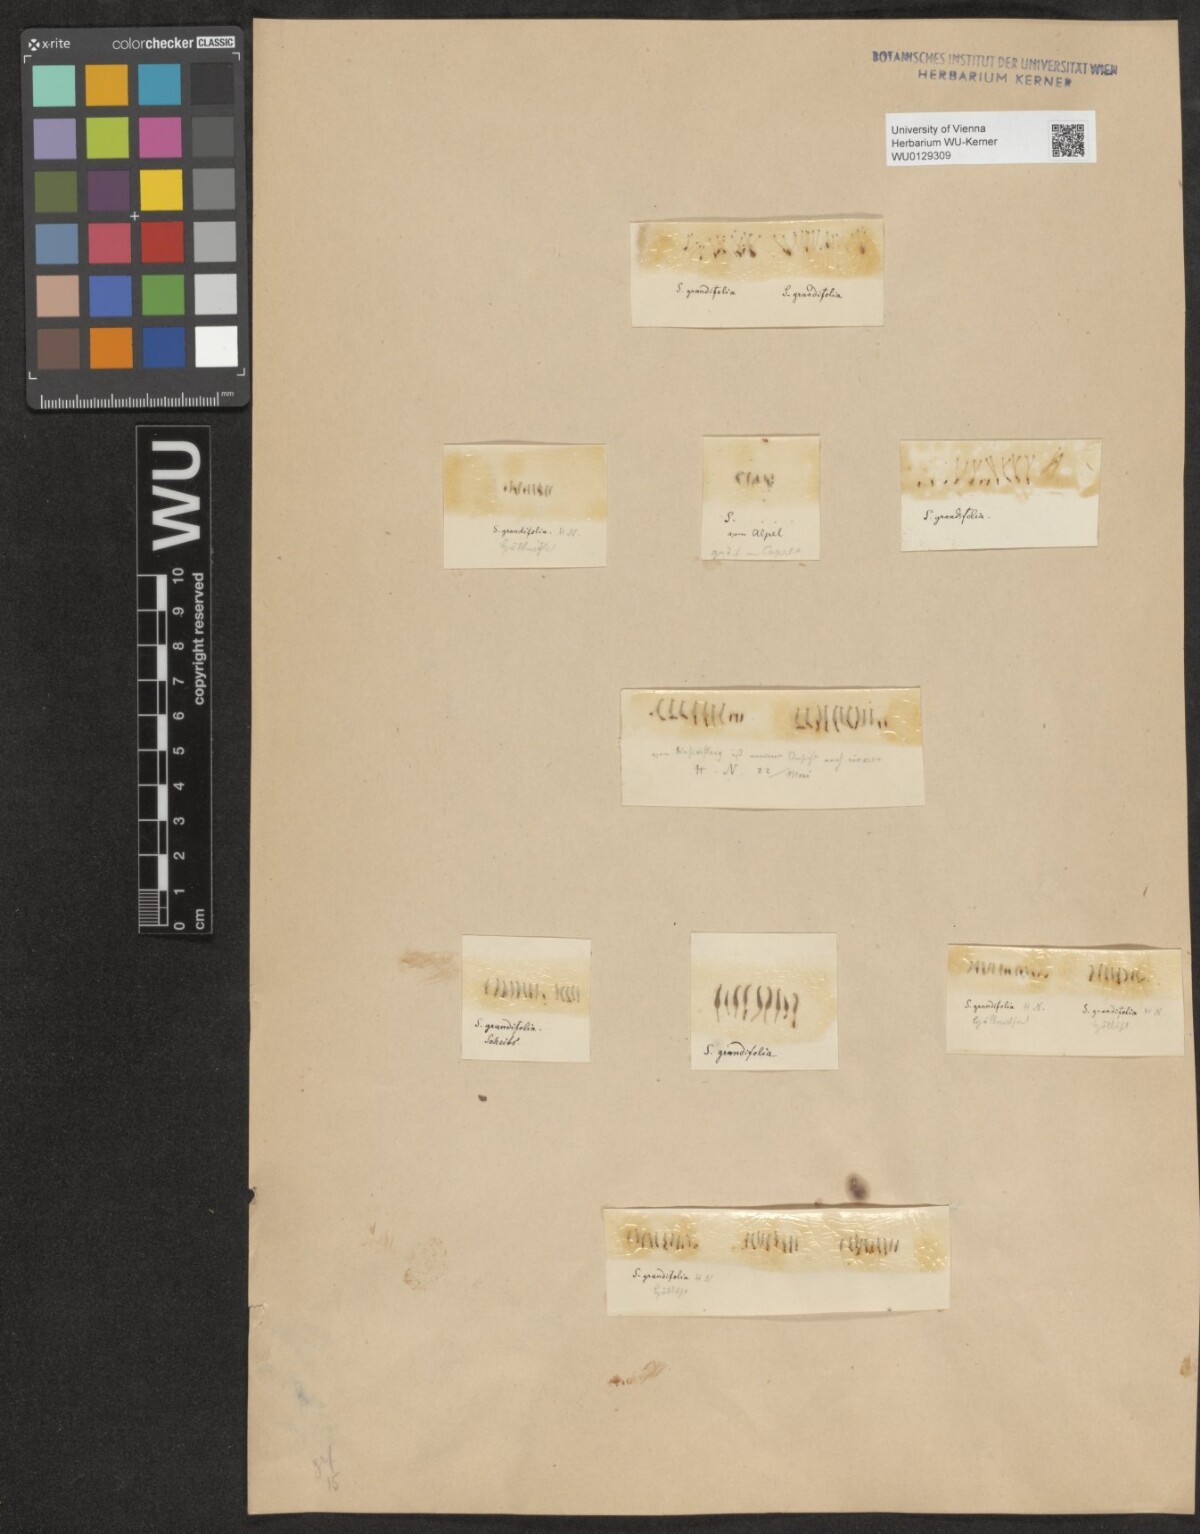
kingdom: Plantae
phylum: Tracheophyta
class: Magnoliopsida
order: Malpighiales
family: Salicaceae
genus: Salix
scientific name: Salix appendiculata
